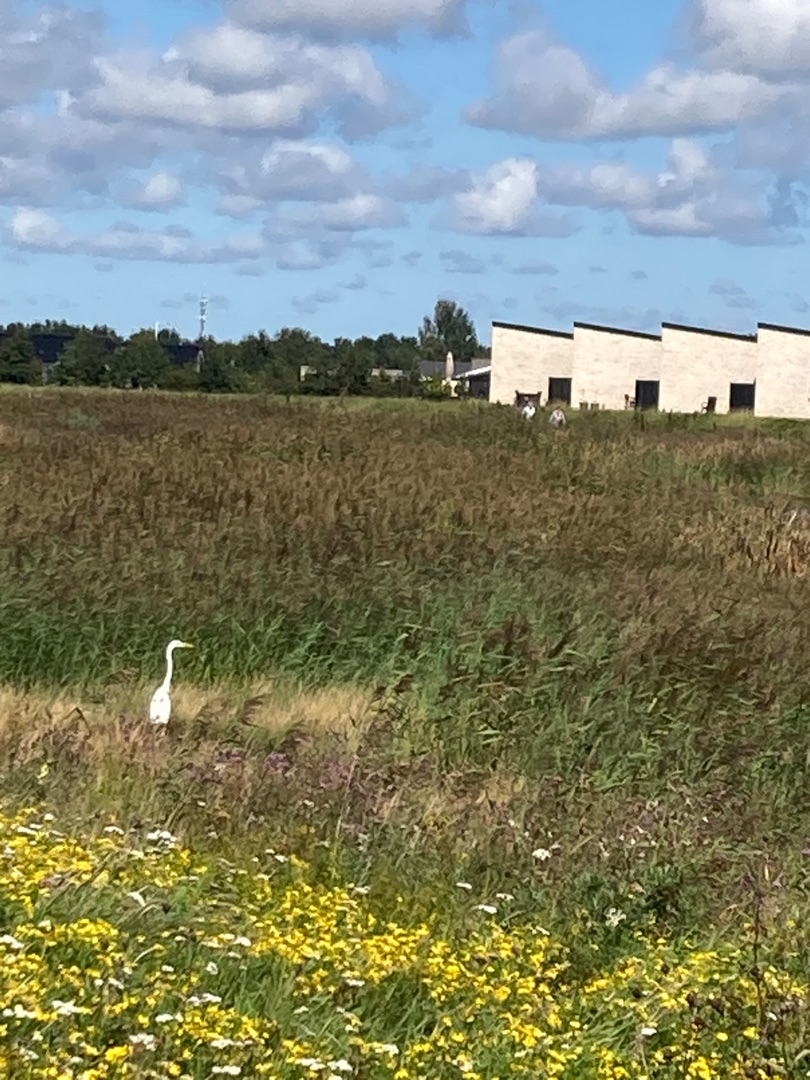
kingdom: Animalia
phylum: Chordata
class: Aves
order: Pelecaniformes
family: Ardeidae
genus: Ardea
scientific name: Ardea alba
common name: Sølvhejre
